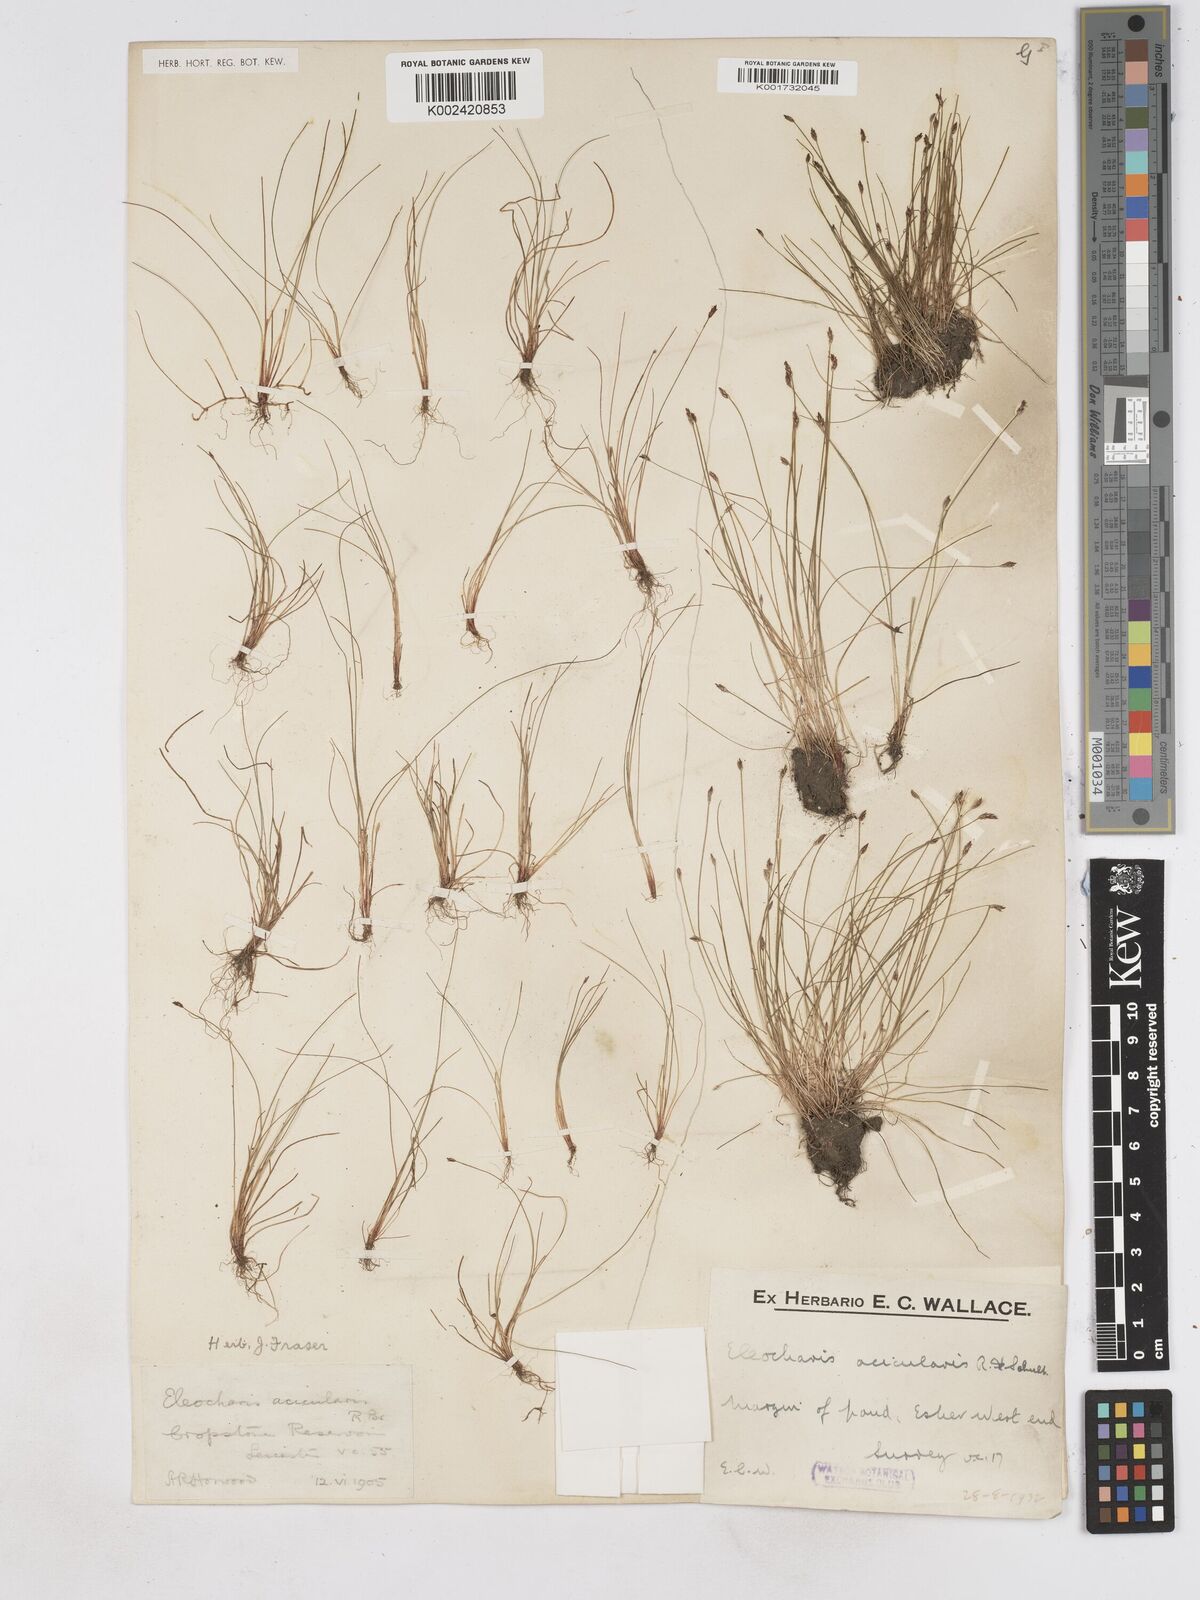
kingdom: Plantae
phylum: Tracheophyta
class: Liliopsida
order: Poales
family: Cyperaceae
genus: Eleocharis
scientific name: Eleocharis acicularis
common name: Needle spike-rush
